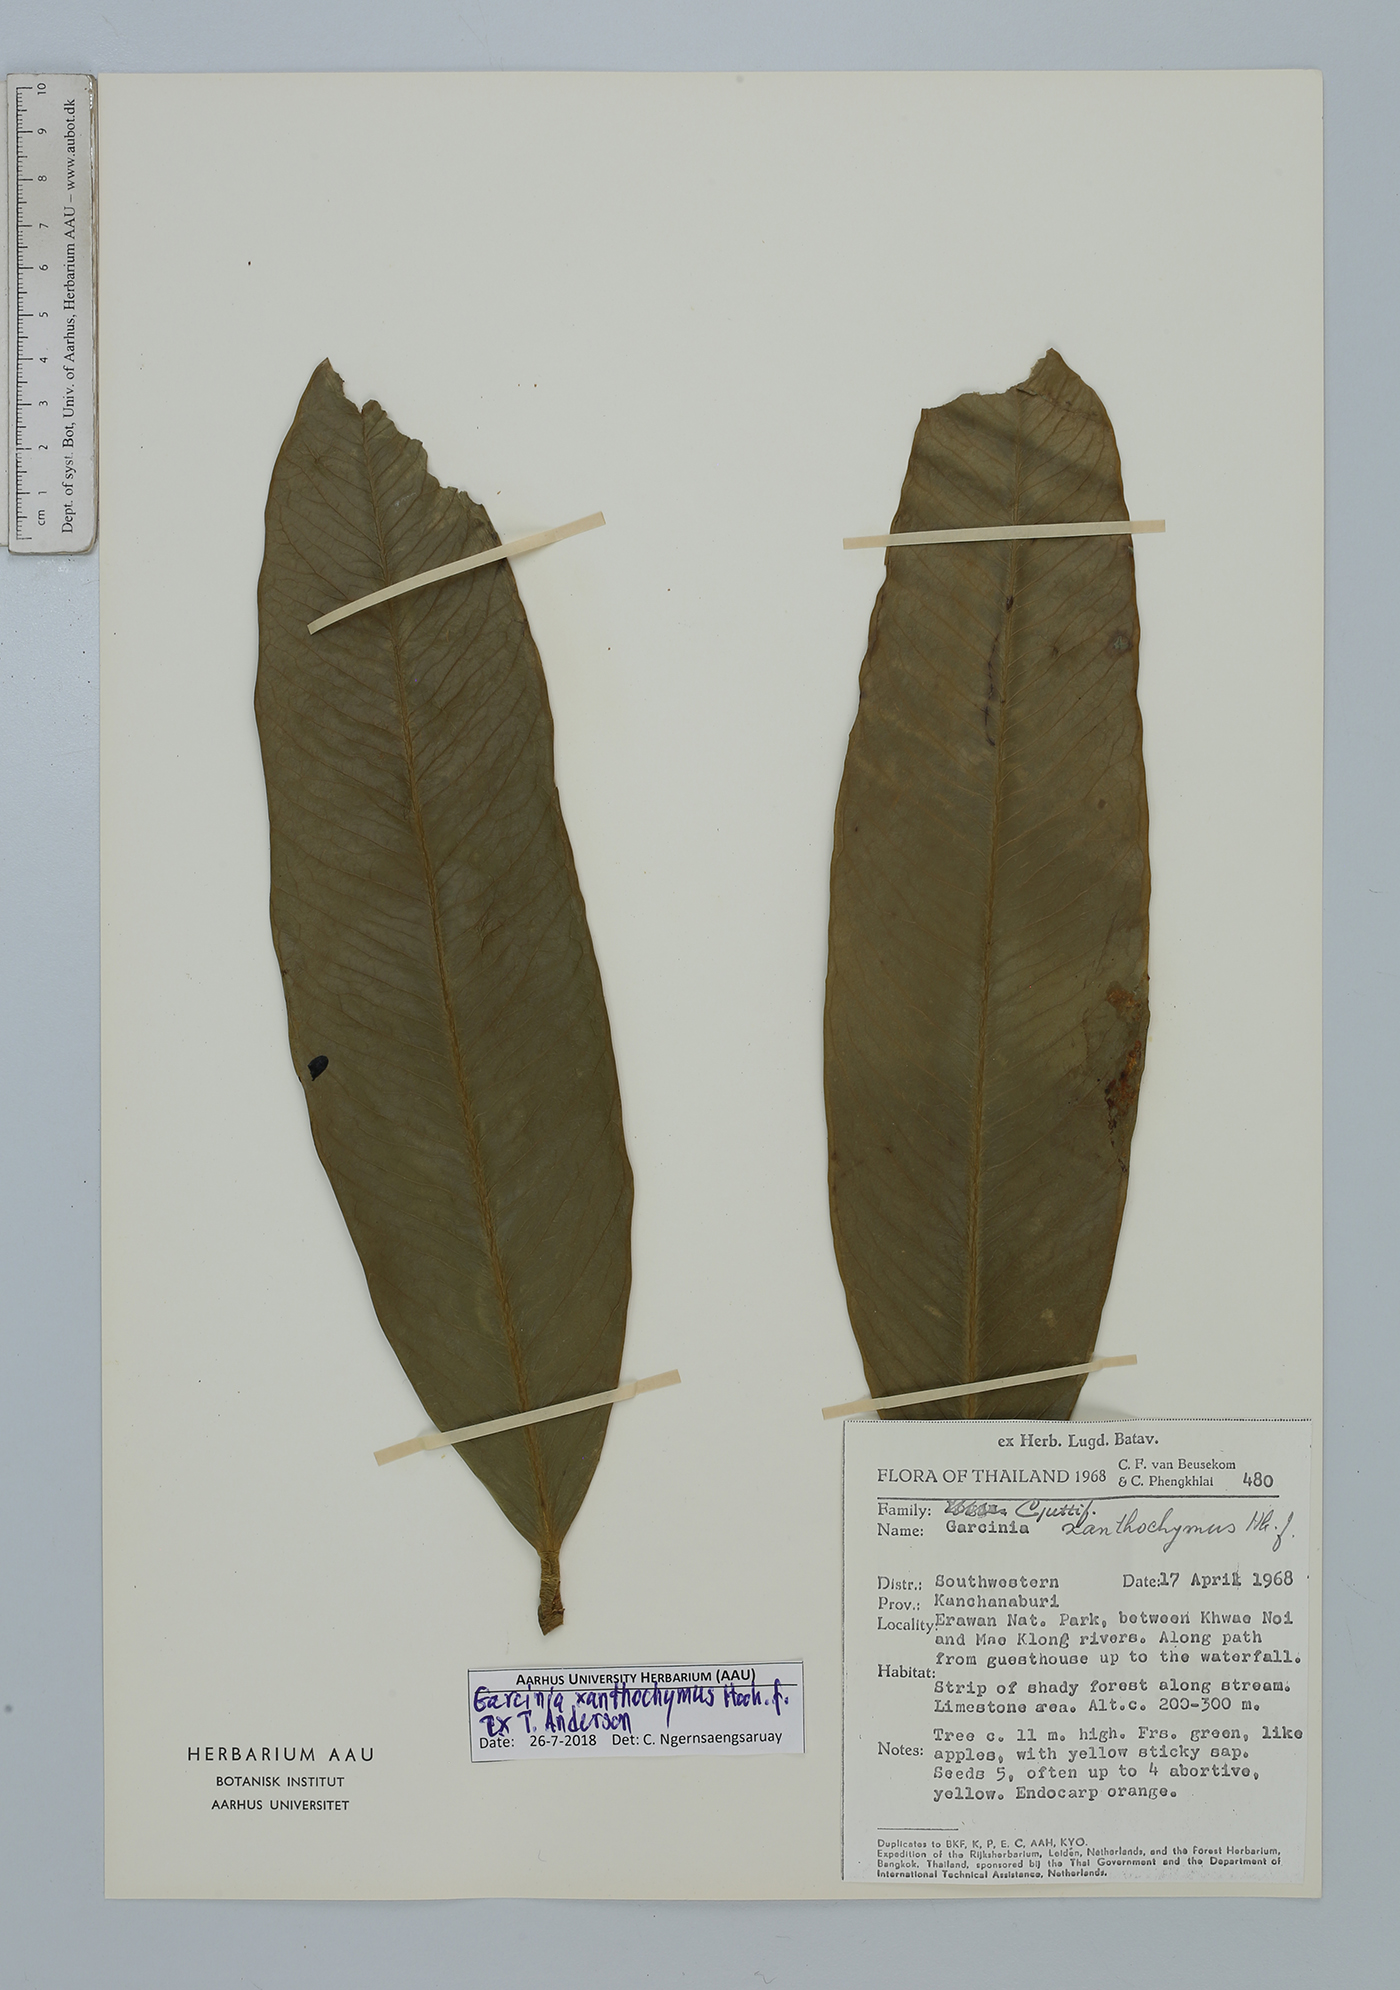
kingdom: Plantae
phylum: Tracheophyta
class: Magnoliopsida
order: Malpighiales
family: Clusiaceae
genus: Garcinia
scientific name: Garcinia xanthochymus
